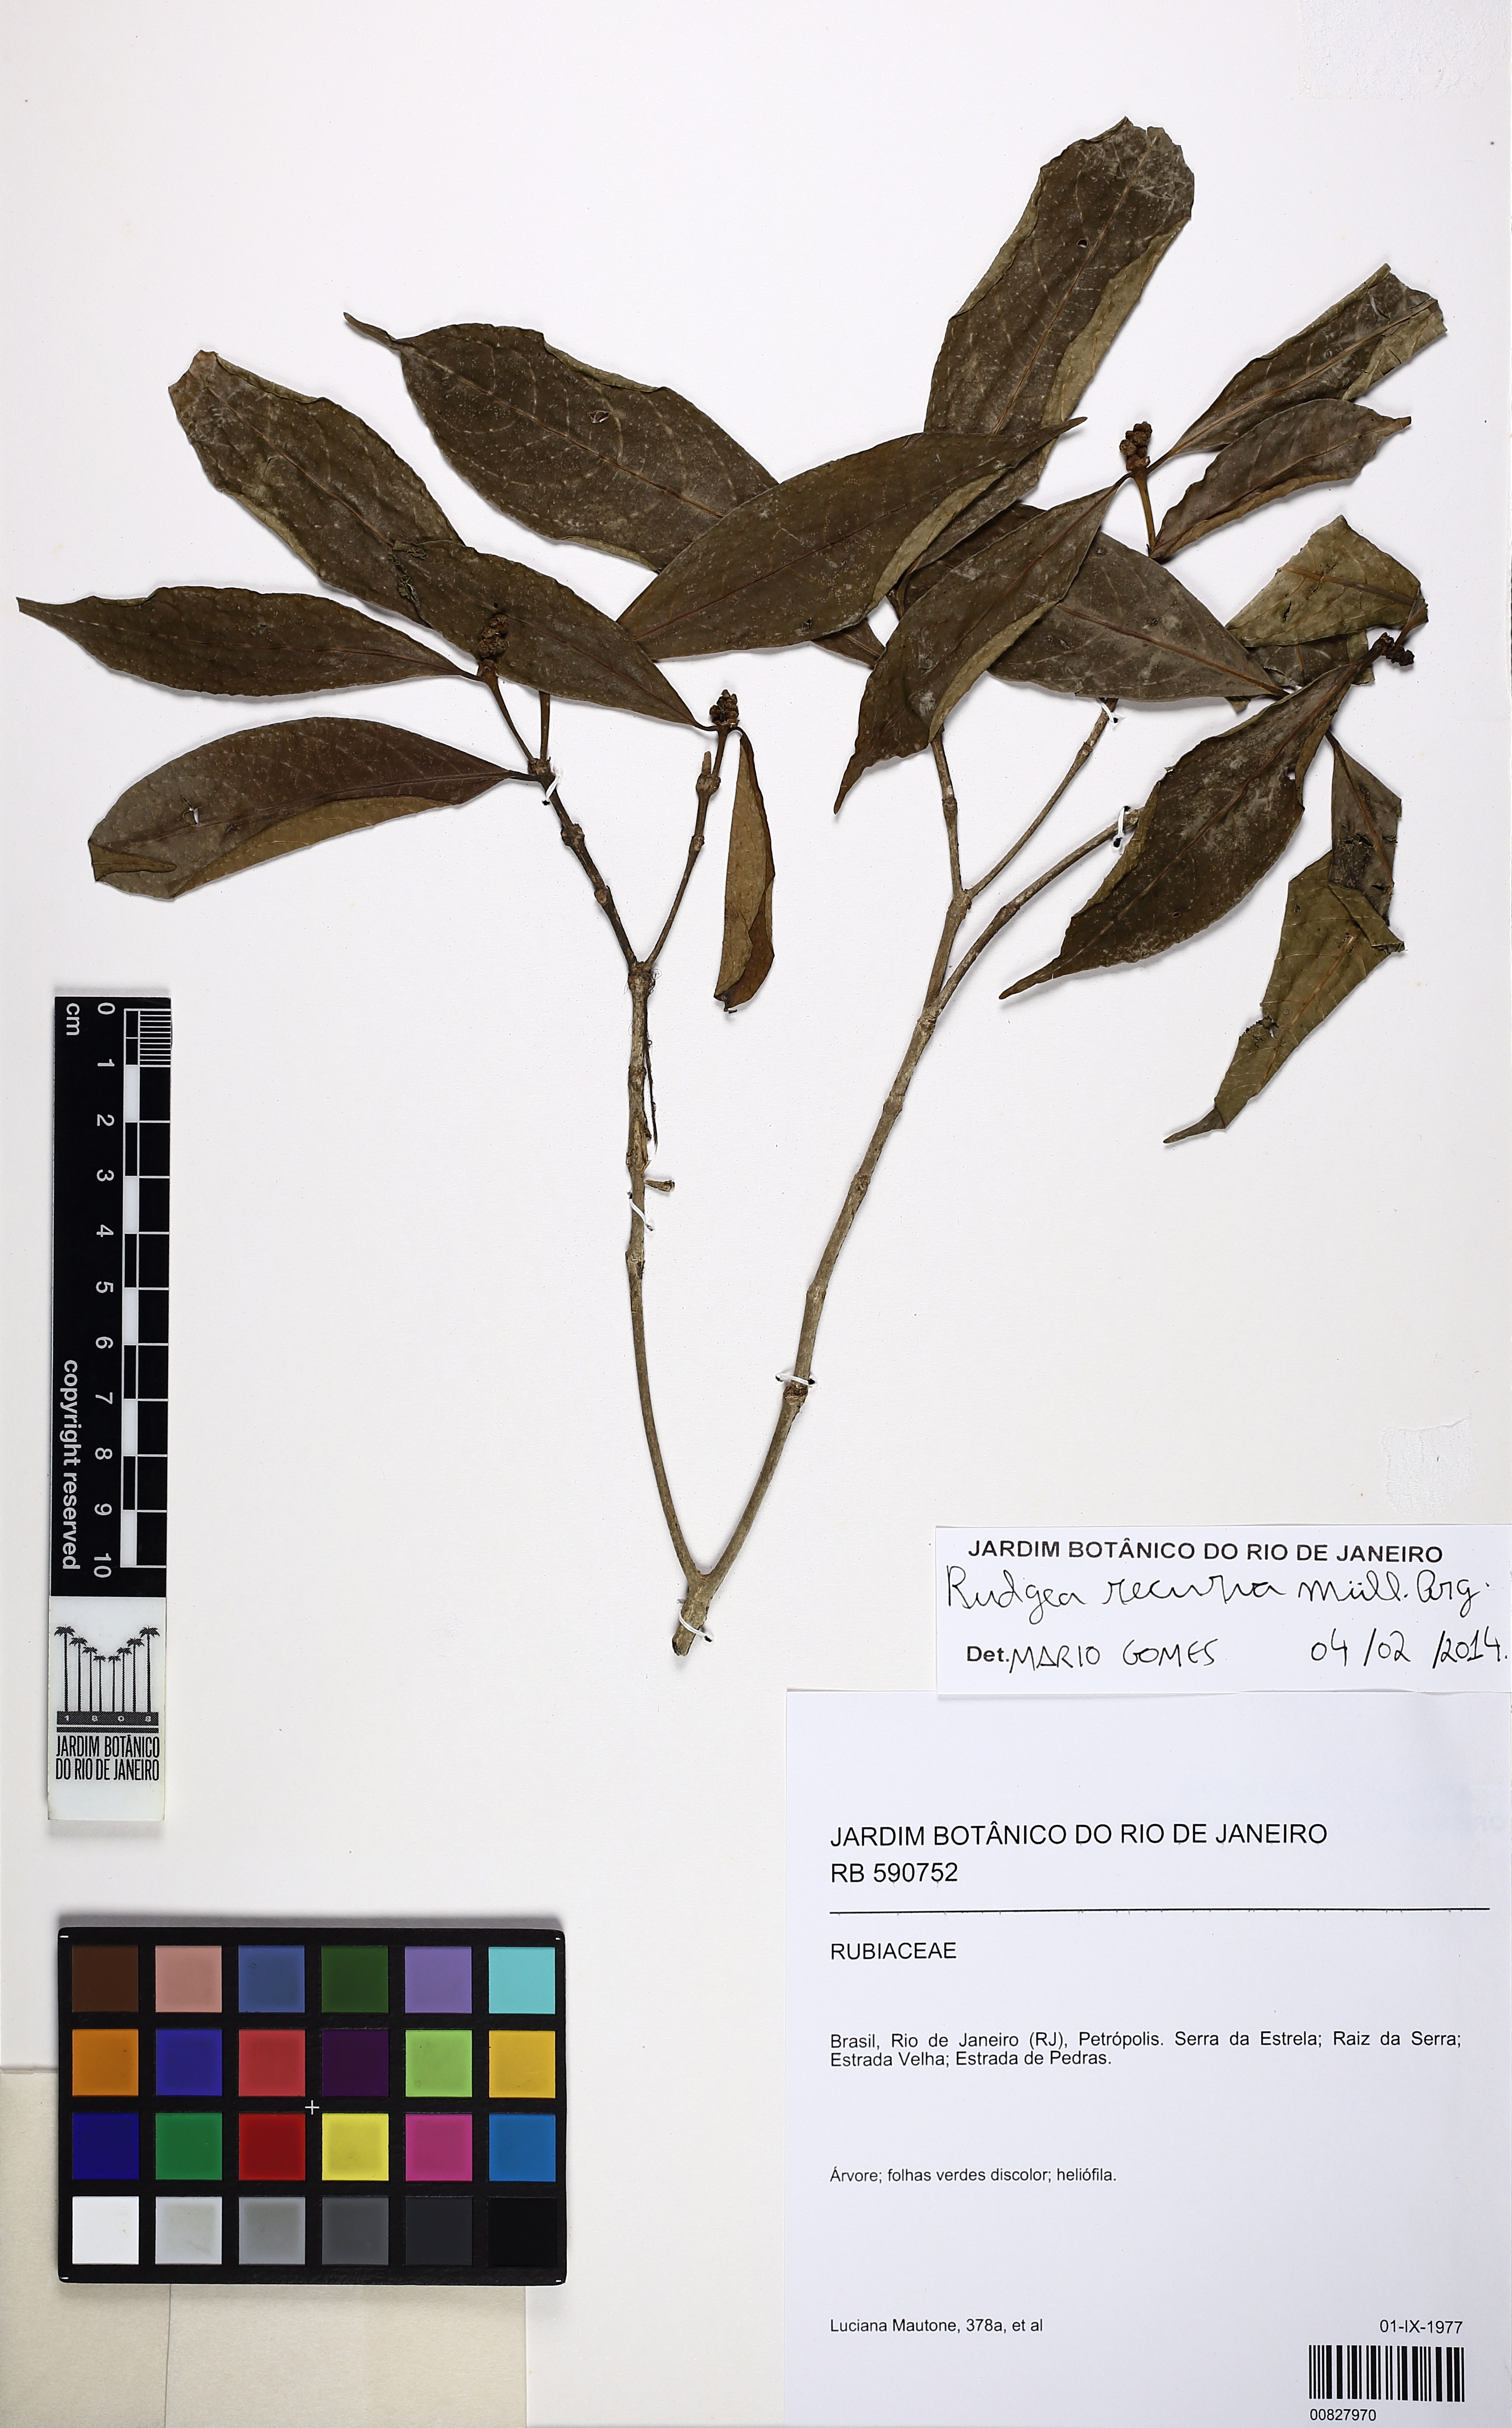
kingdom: Plantae
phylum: Tracheophyta
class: Magnoliopsida
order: Gentianales
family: Rubiaceae
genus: Rudgea
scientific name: Rudgea recurva
